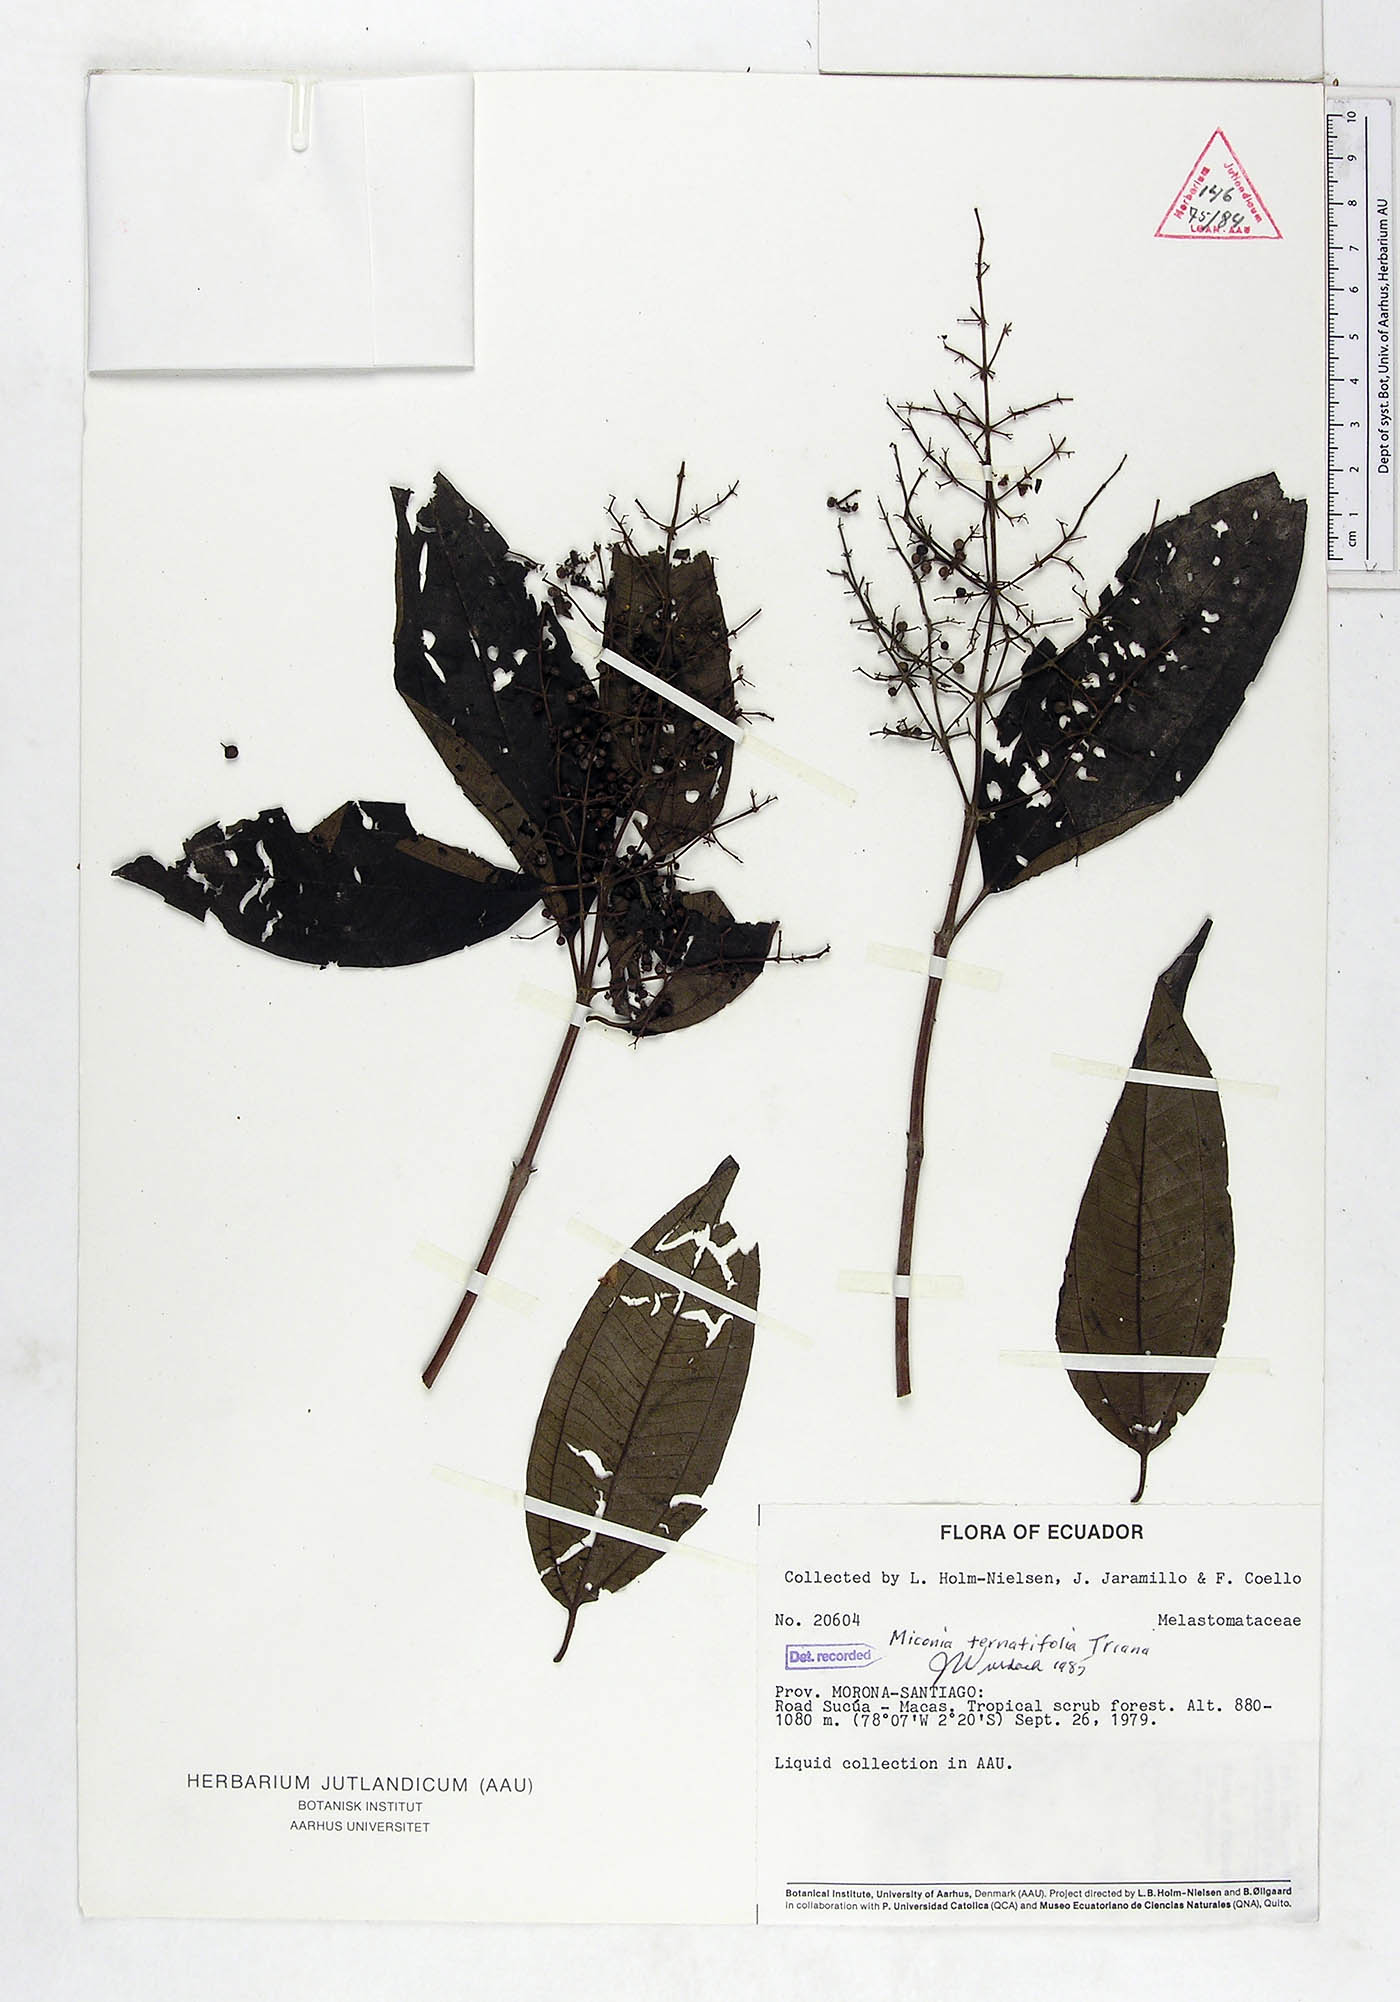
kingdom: Plantae
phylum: Tracheophyta
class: Magnoliopsida
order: Myrtales
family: Melastomataceae
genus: Miconia
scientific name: Miconia ternatifolia
